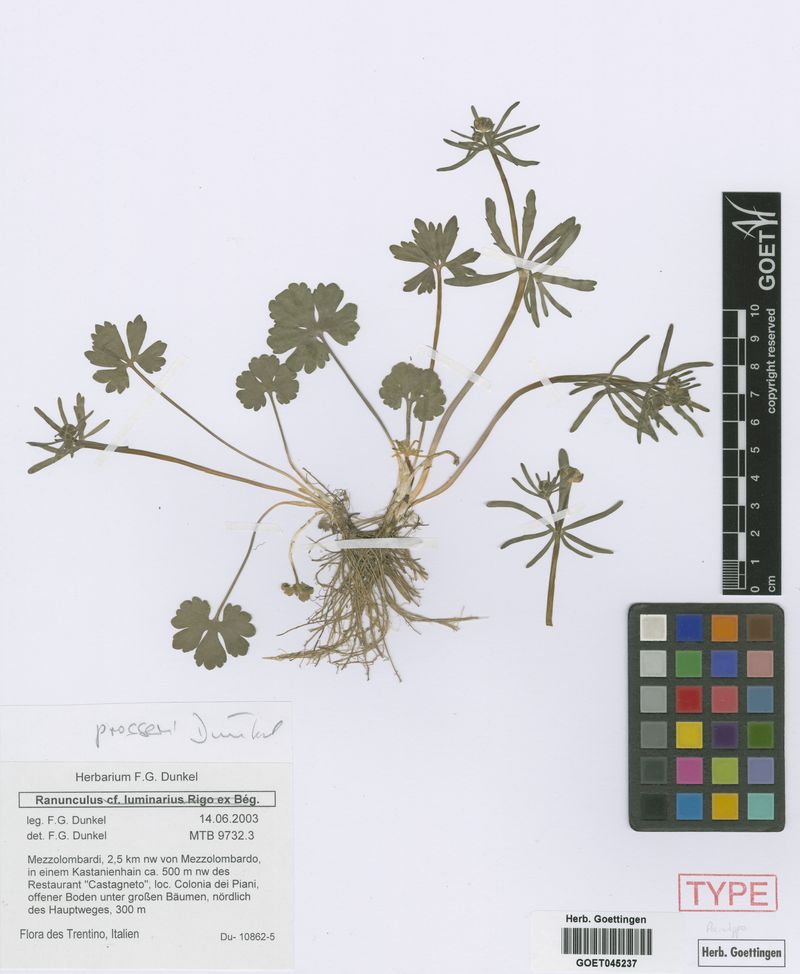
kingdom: Plantae
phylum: Tracheophyta
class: Magnoliopsida
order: Ranunculales
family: Ranunculaceae
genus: Ranunculus
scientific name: Ranunculus prosseri
